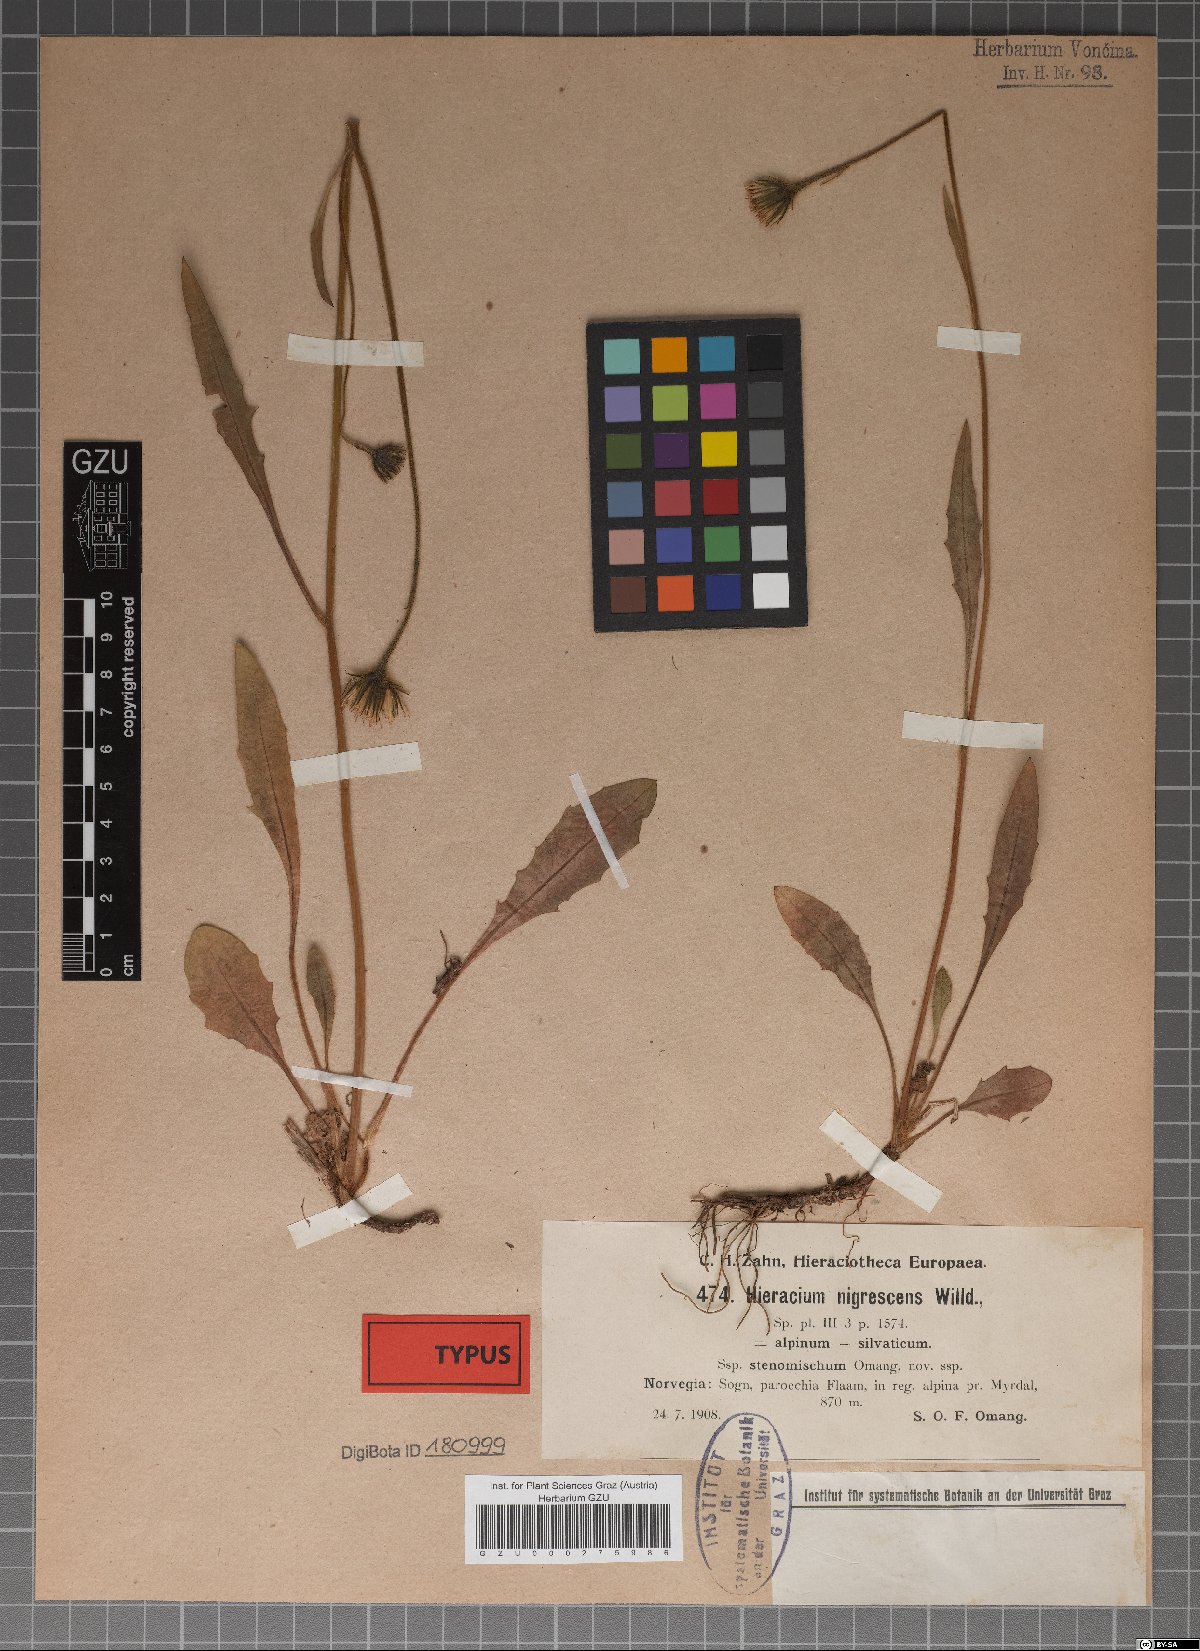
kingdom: Plantae
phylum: Tracheophyta
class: Magnoliopsida
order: Asterales
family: Asteraceae
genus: Hieracium
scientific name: Hieracium stenomischum
